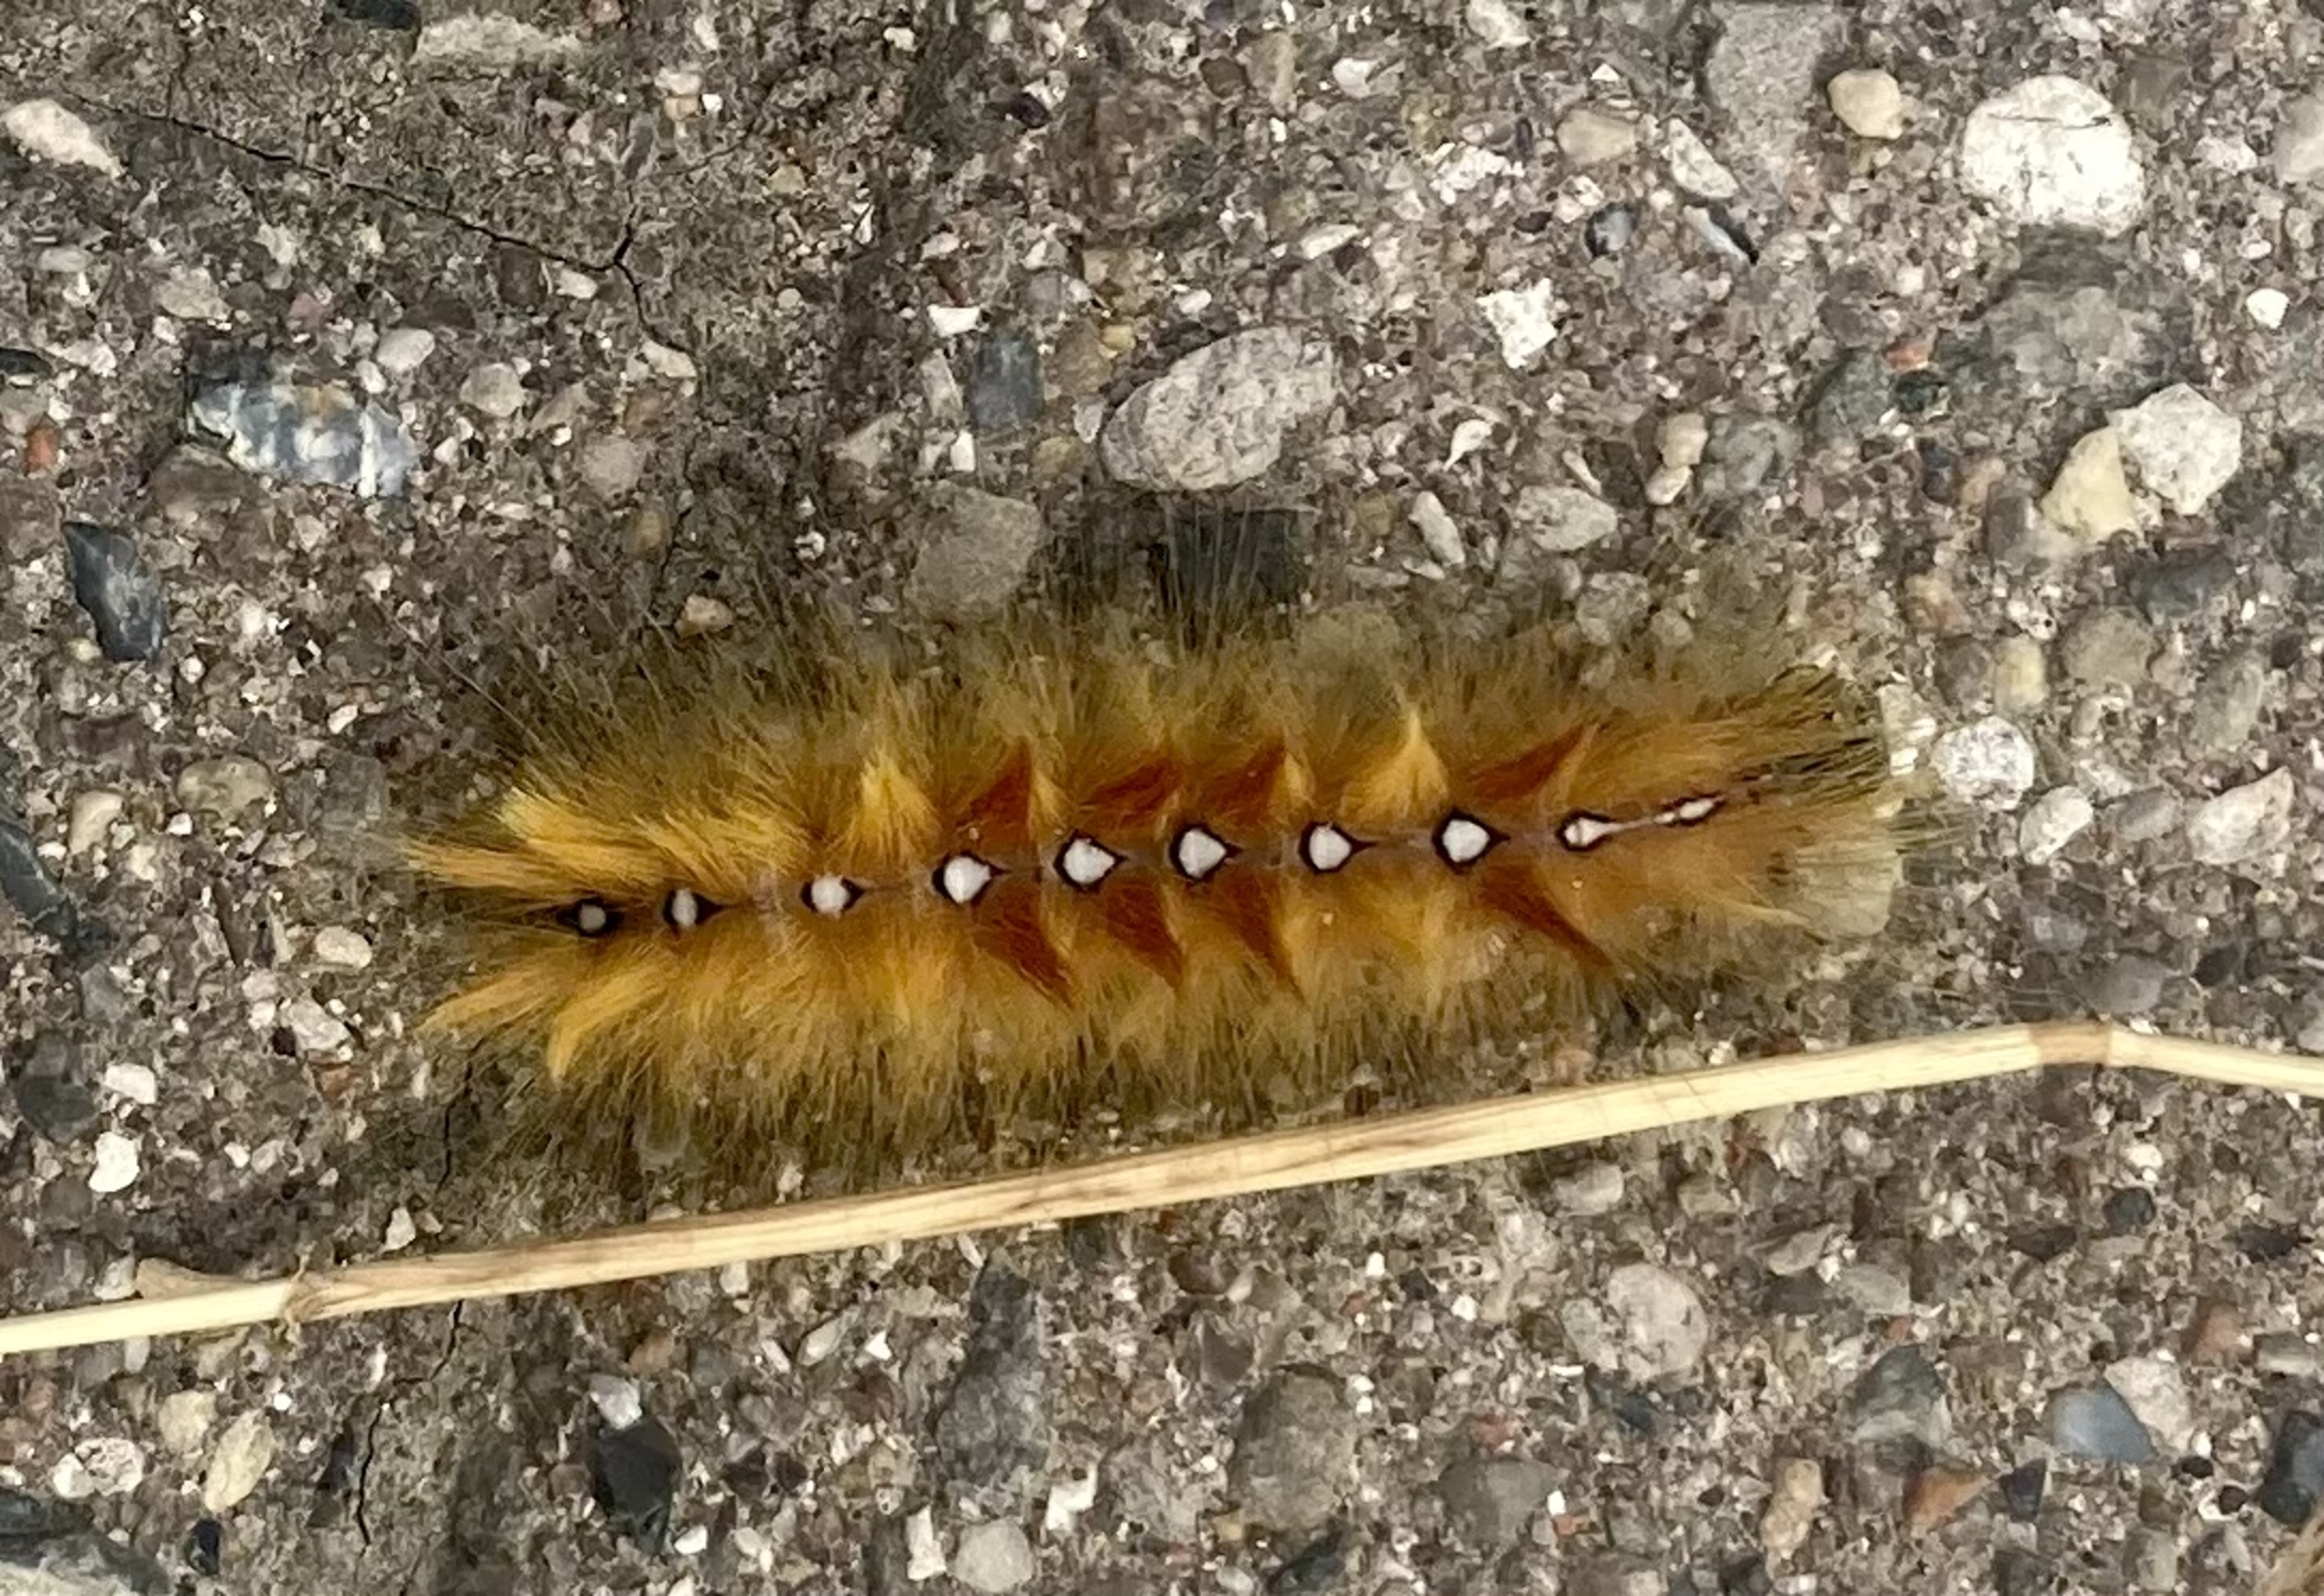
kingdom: Animalia
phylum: Arthropoda
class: Insecta
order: Lepidoptera
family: Noctuidae
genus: Acronicta
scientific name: Acronicta aceris
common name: Ahornugle
